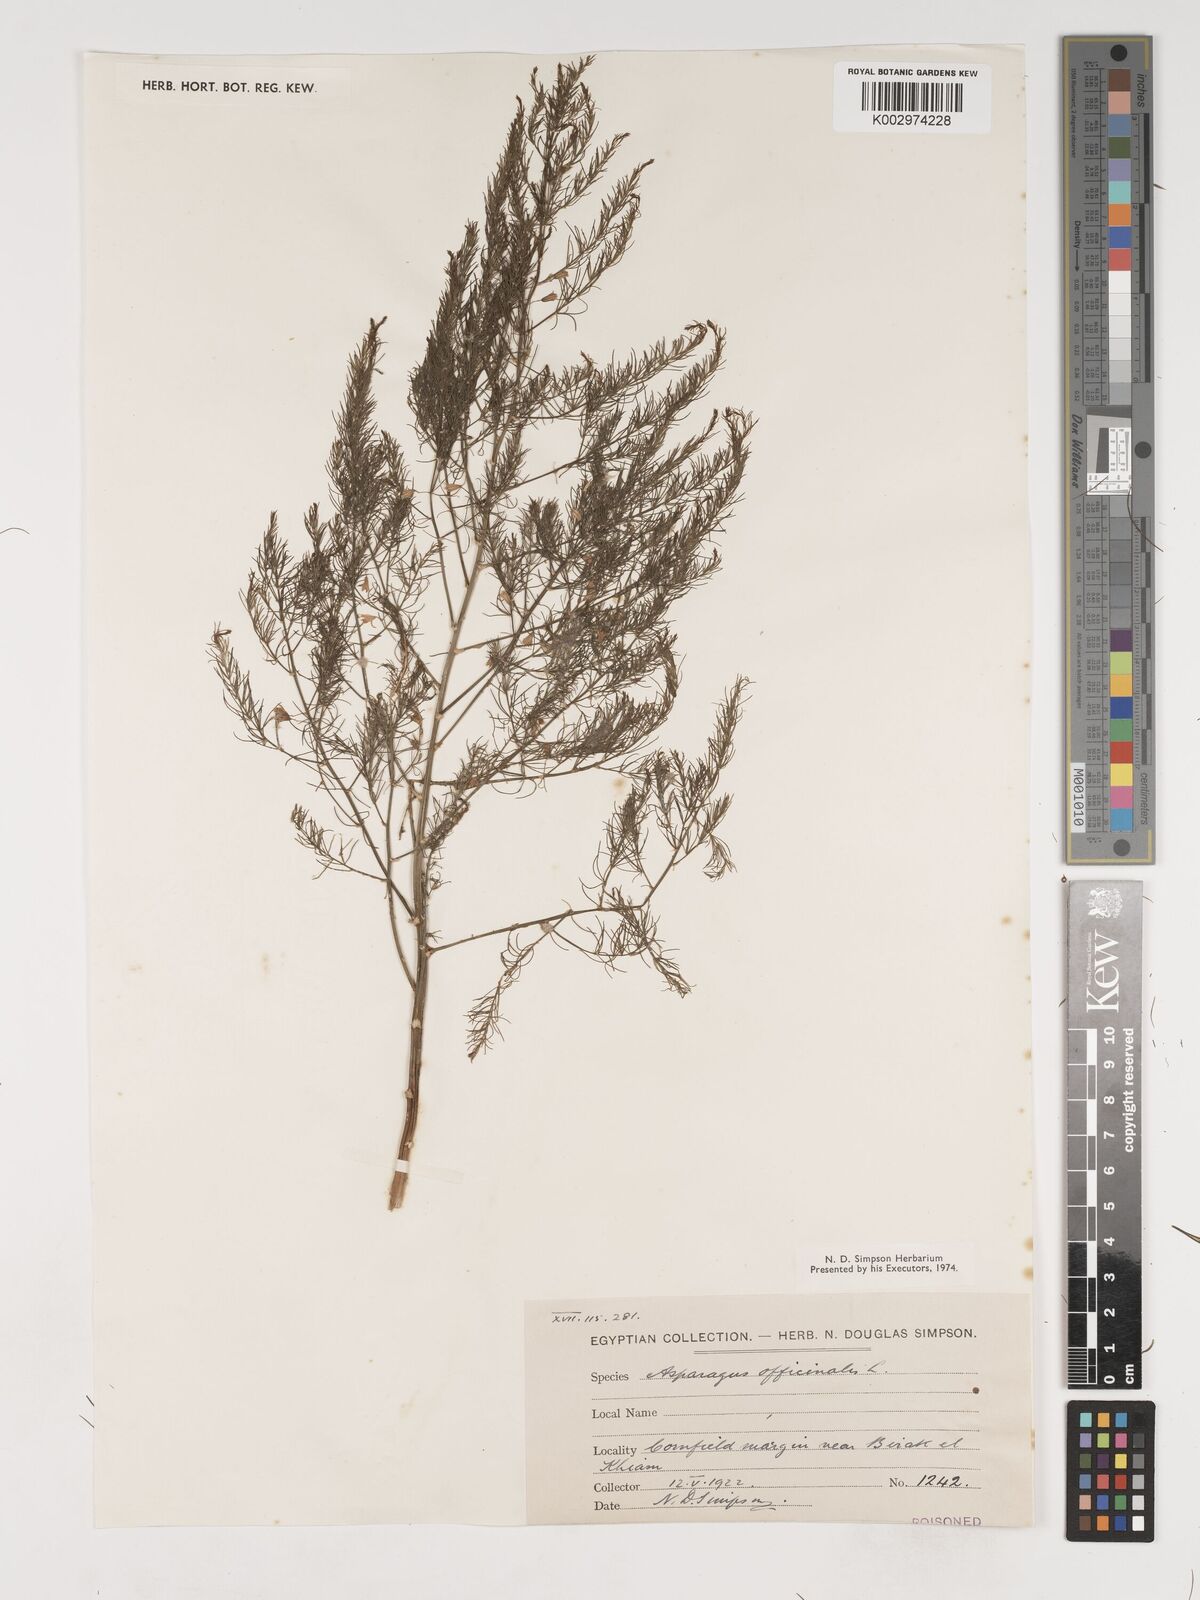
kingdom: Plantae
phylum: Tracheophyta
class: Liliopsida
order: Asparagales
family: Asparagaceae
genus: Asparagus
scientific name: Asparagus officinalis
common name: Garden asparagus
